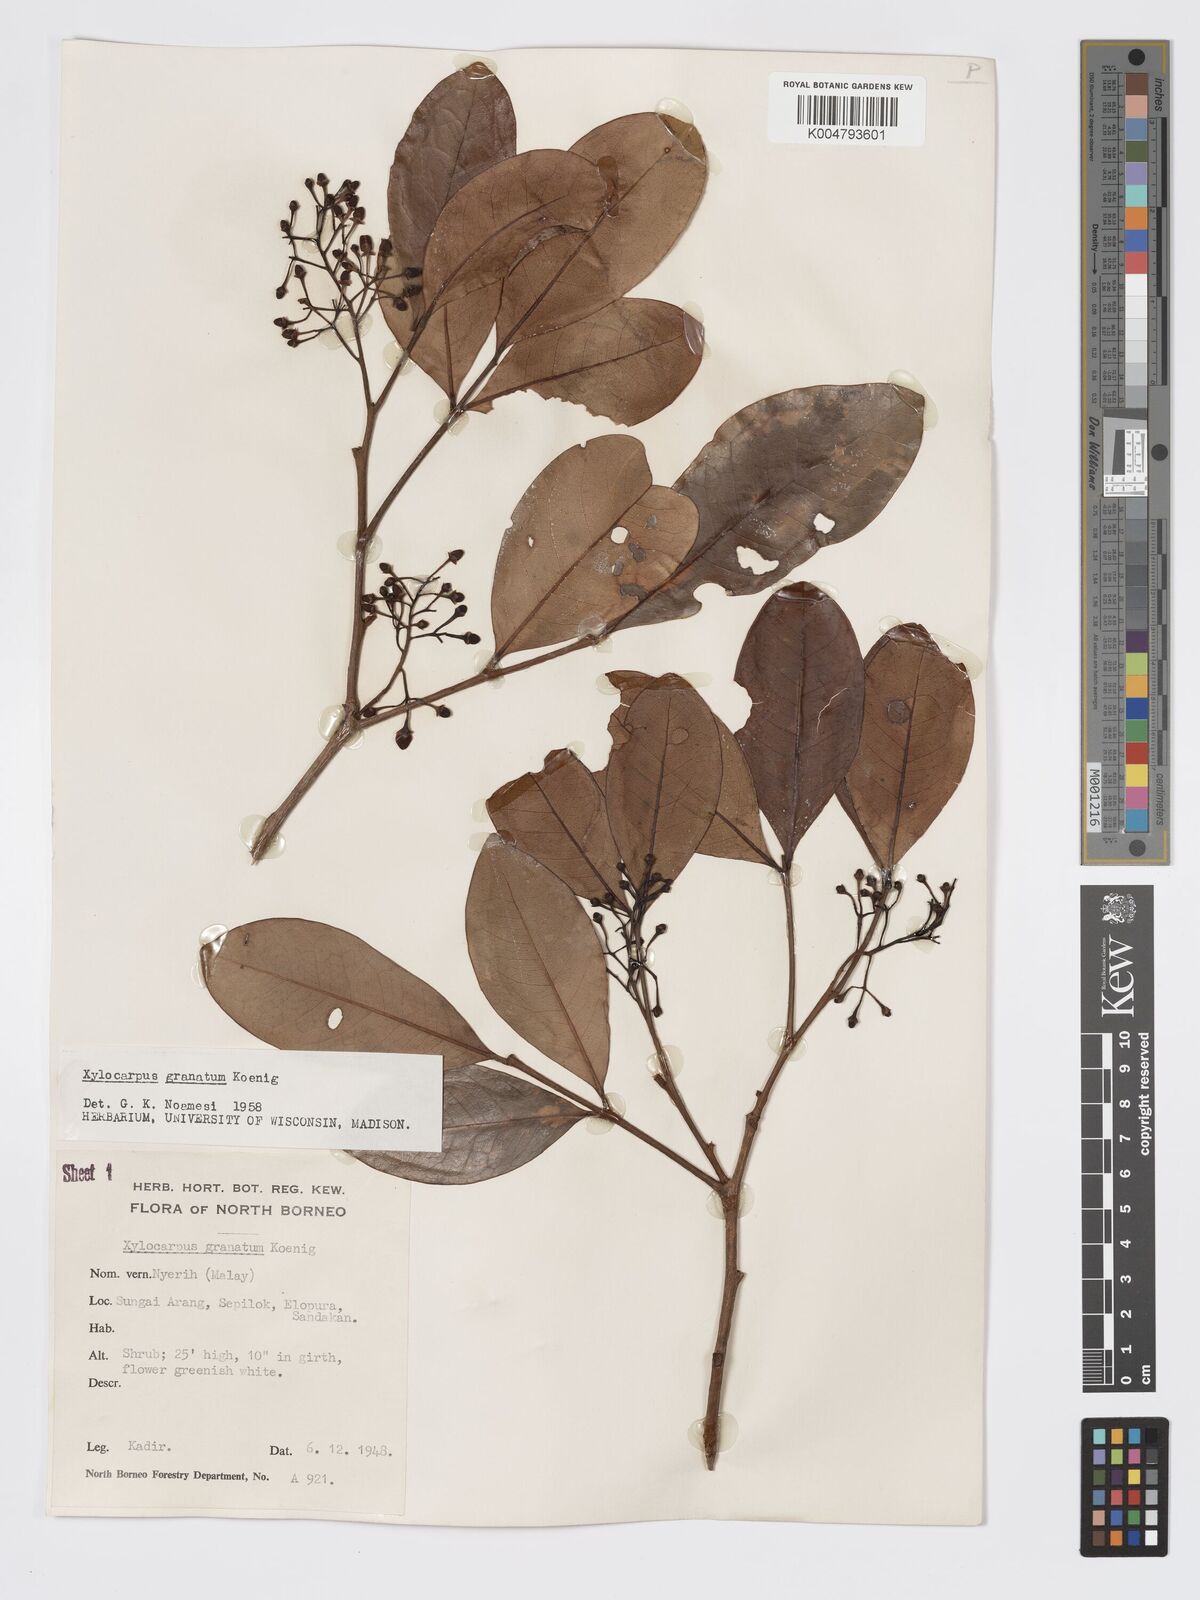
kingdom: Plantae
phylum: Tracheophyta
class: Magnoliopsida
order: Sapindales
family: Meliaceae
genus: Xylocarpus
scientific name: Xylocarpus granatum
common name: Apple mangrove
